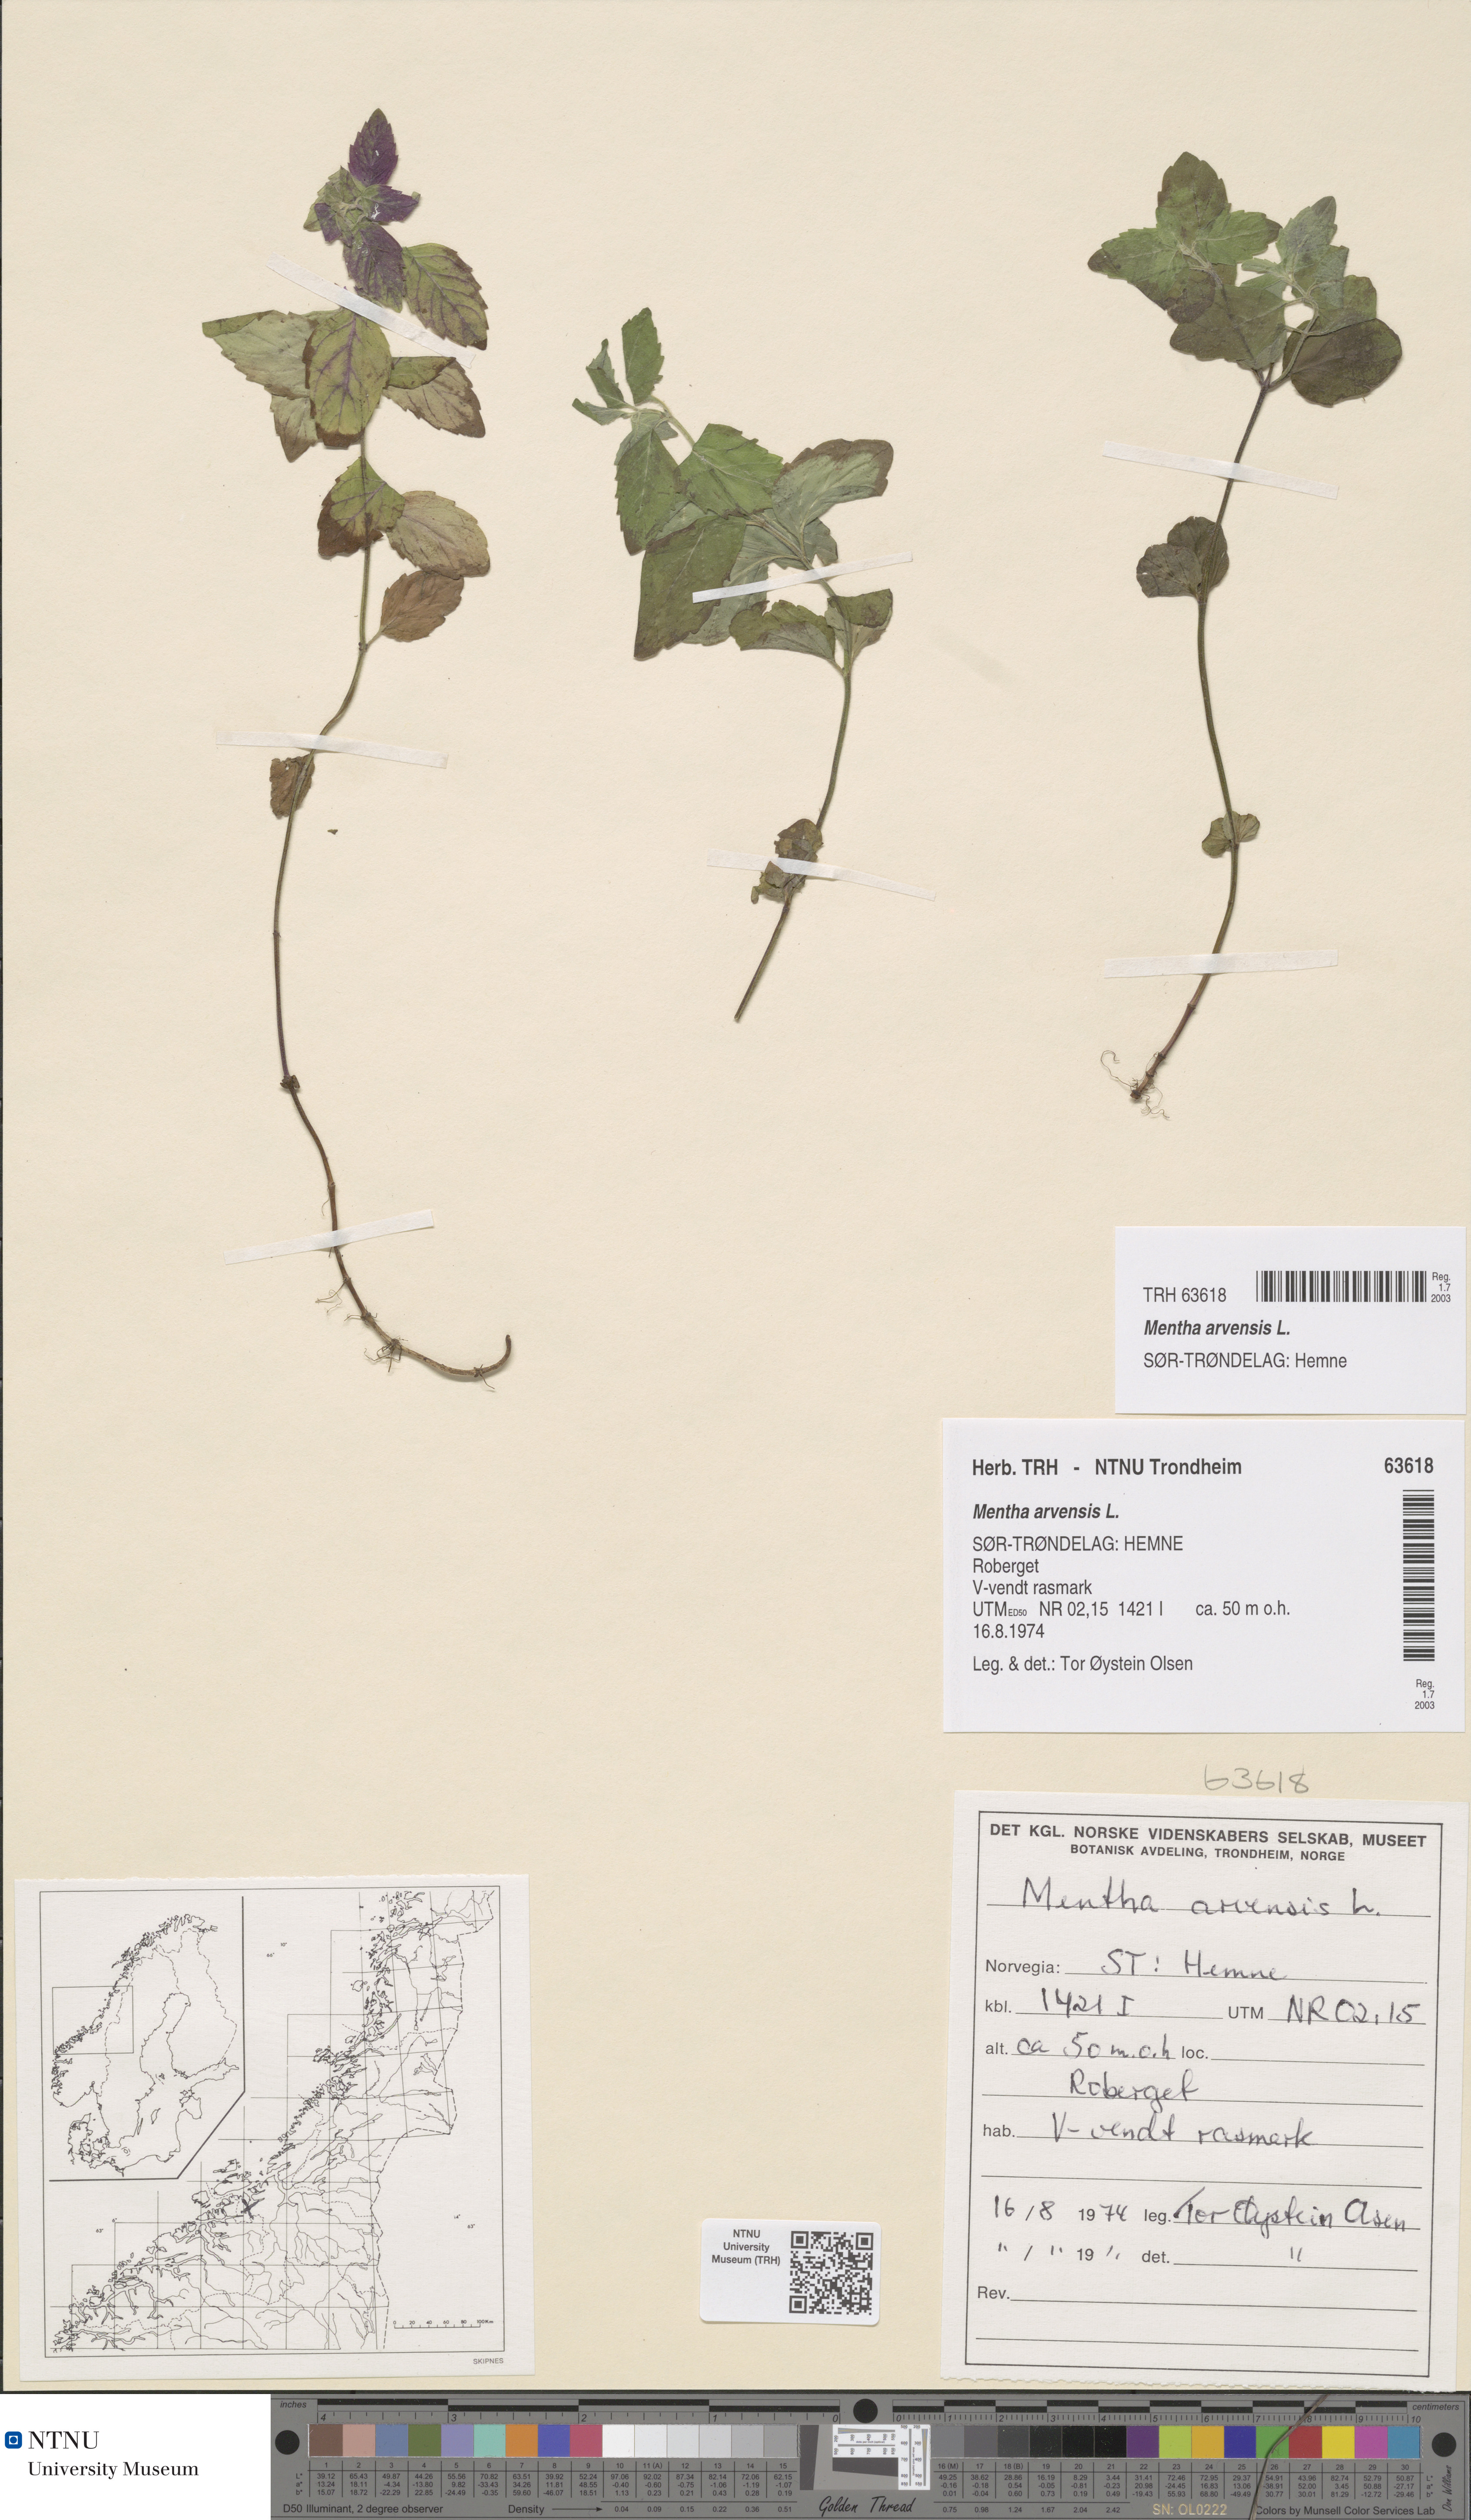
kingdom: Plantae
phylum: Tracheophyta
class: Magnoliopsida
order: Lamiales
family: Lamiaceae
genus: Mentha
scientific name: Mentha arvensis
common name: Corn mint
